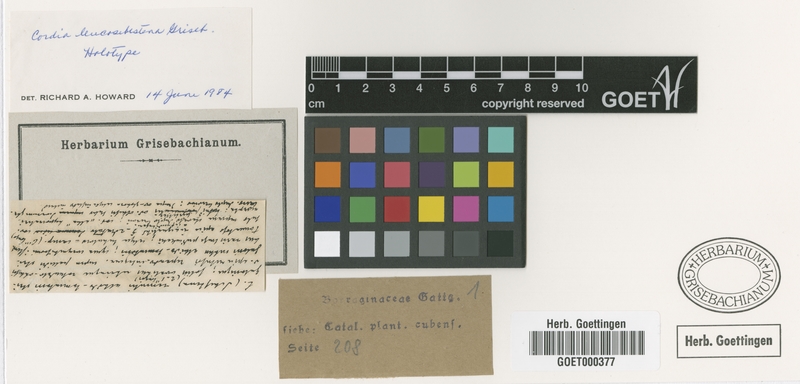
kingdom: Plantae
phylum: Tracheophyta
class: Magnoliopsida
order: Boraginales
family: Cordiaceae
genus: Cordia
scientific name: Cordia leucosebestera
